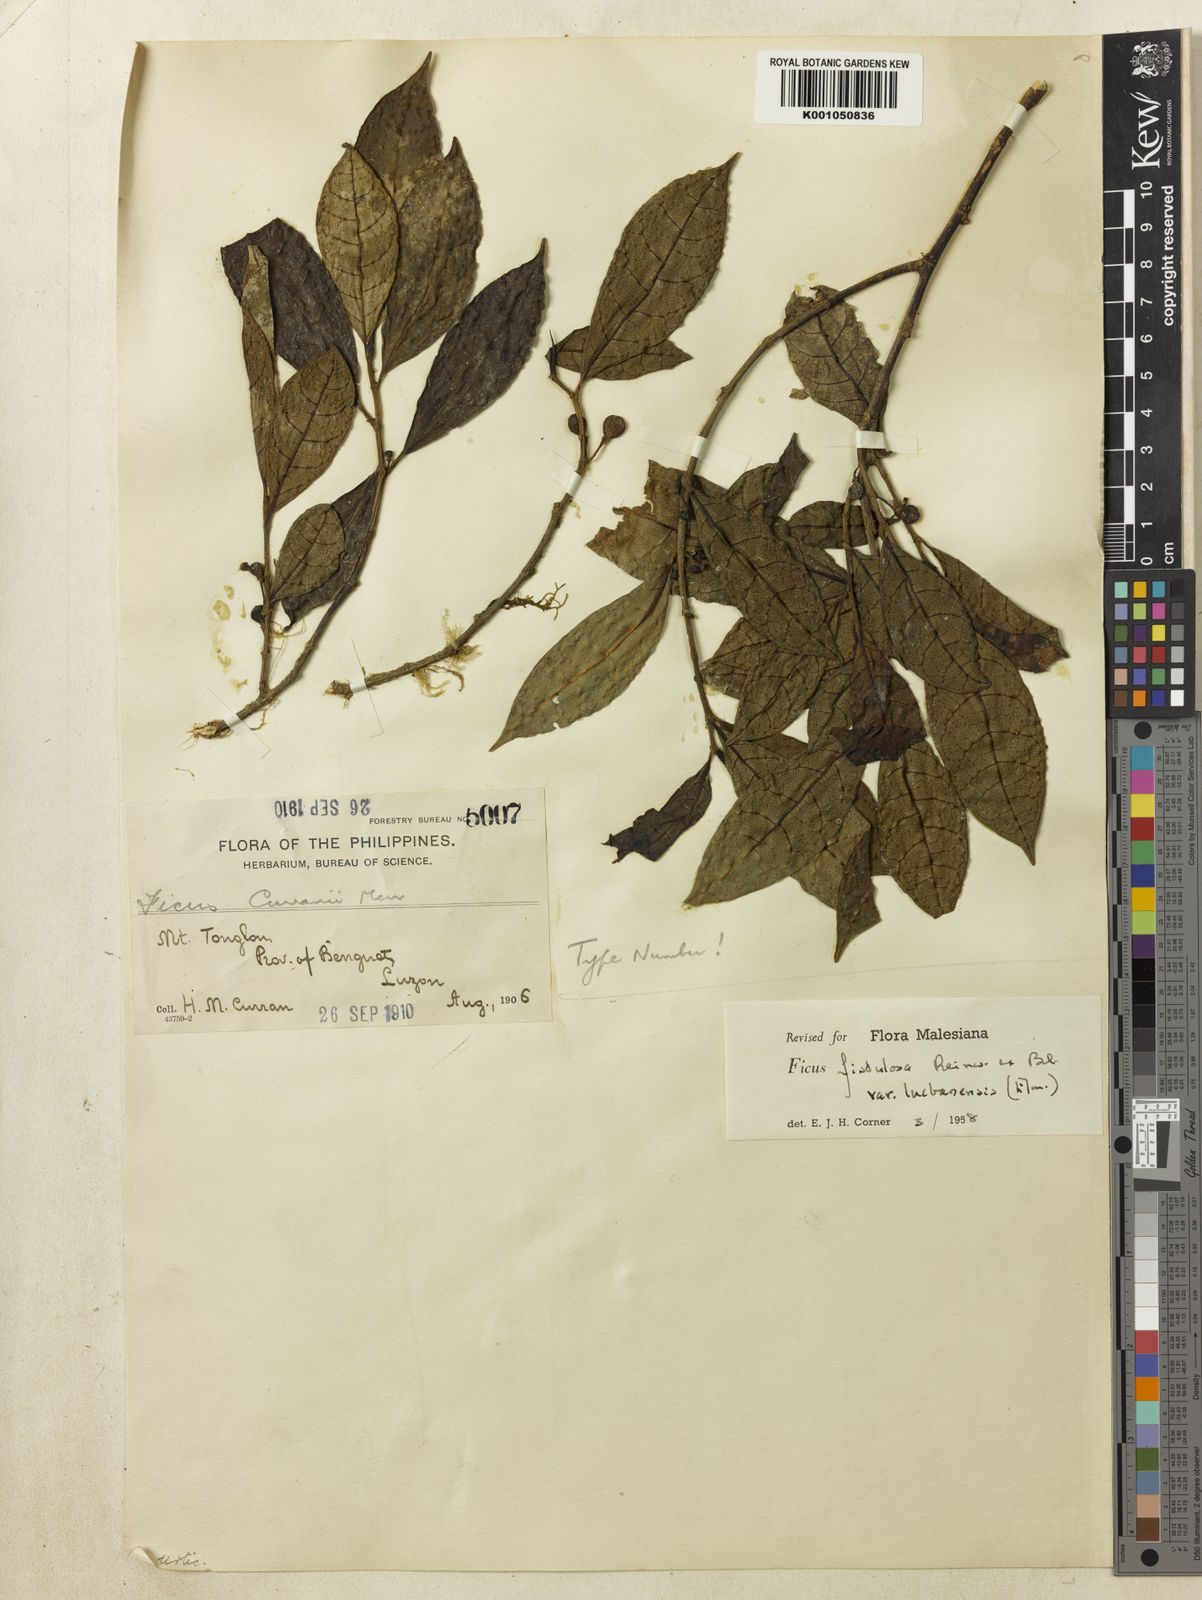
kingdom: Plantae
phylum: Tracheophyta
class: Magnoliopsida
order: Rosales
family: Moraceae
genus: Ficus
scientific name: Ficus septica
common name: Septic fig
